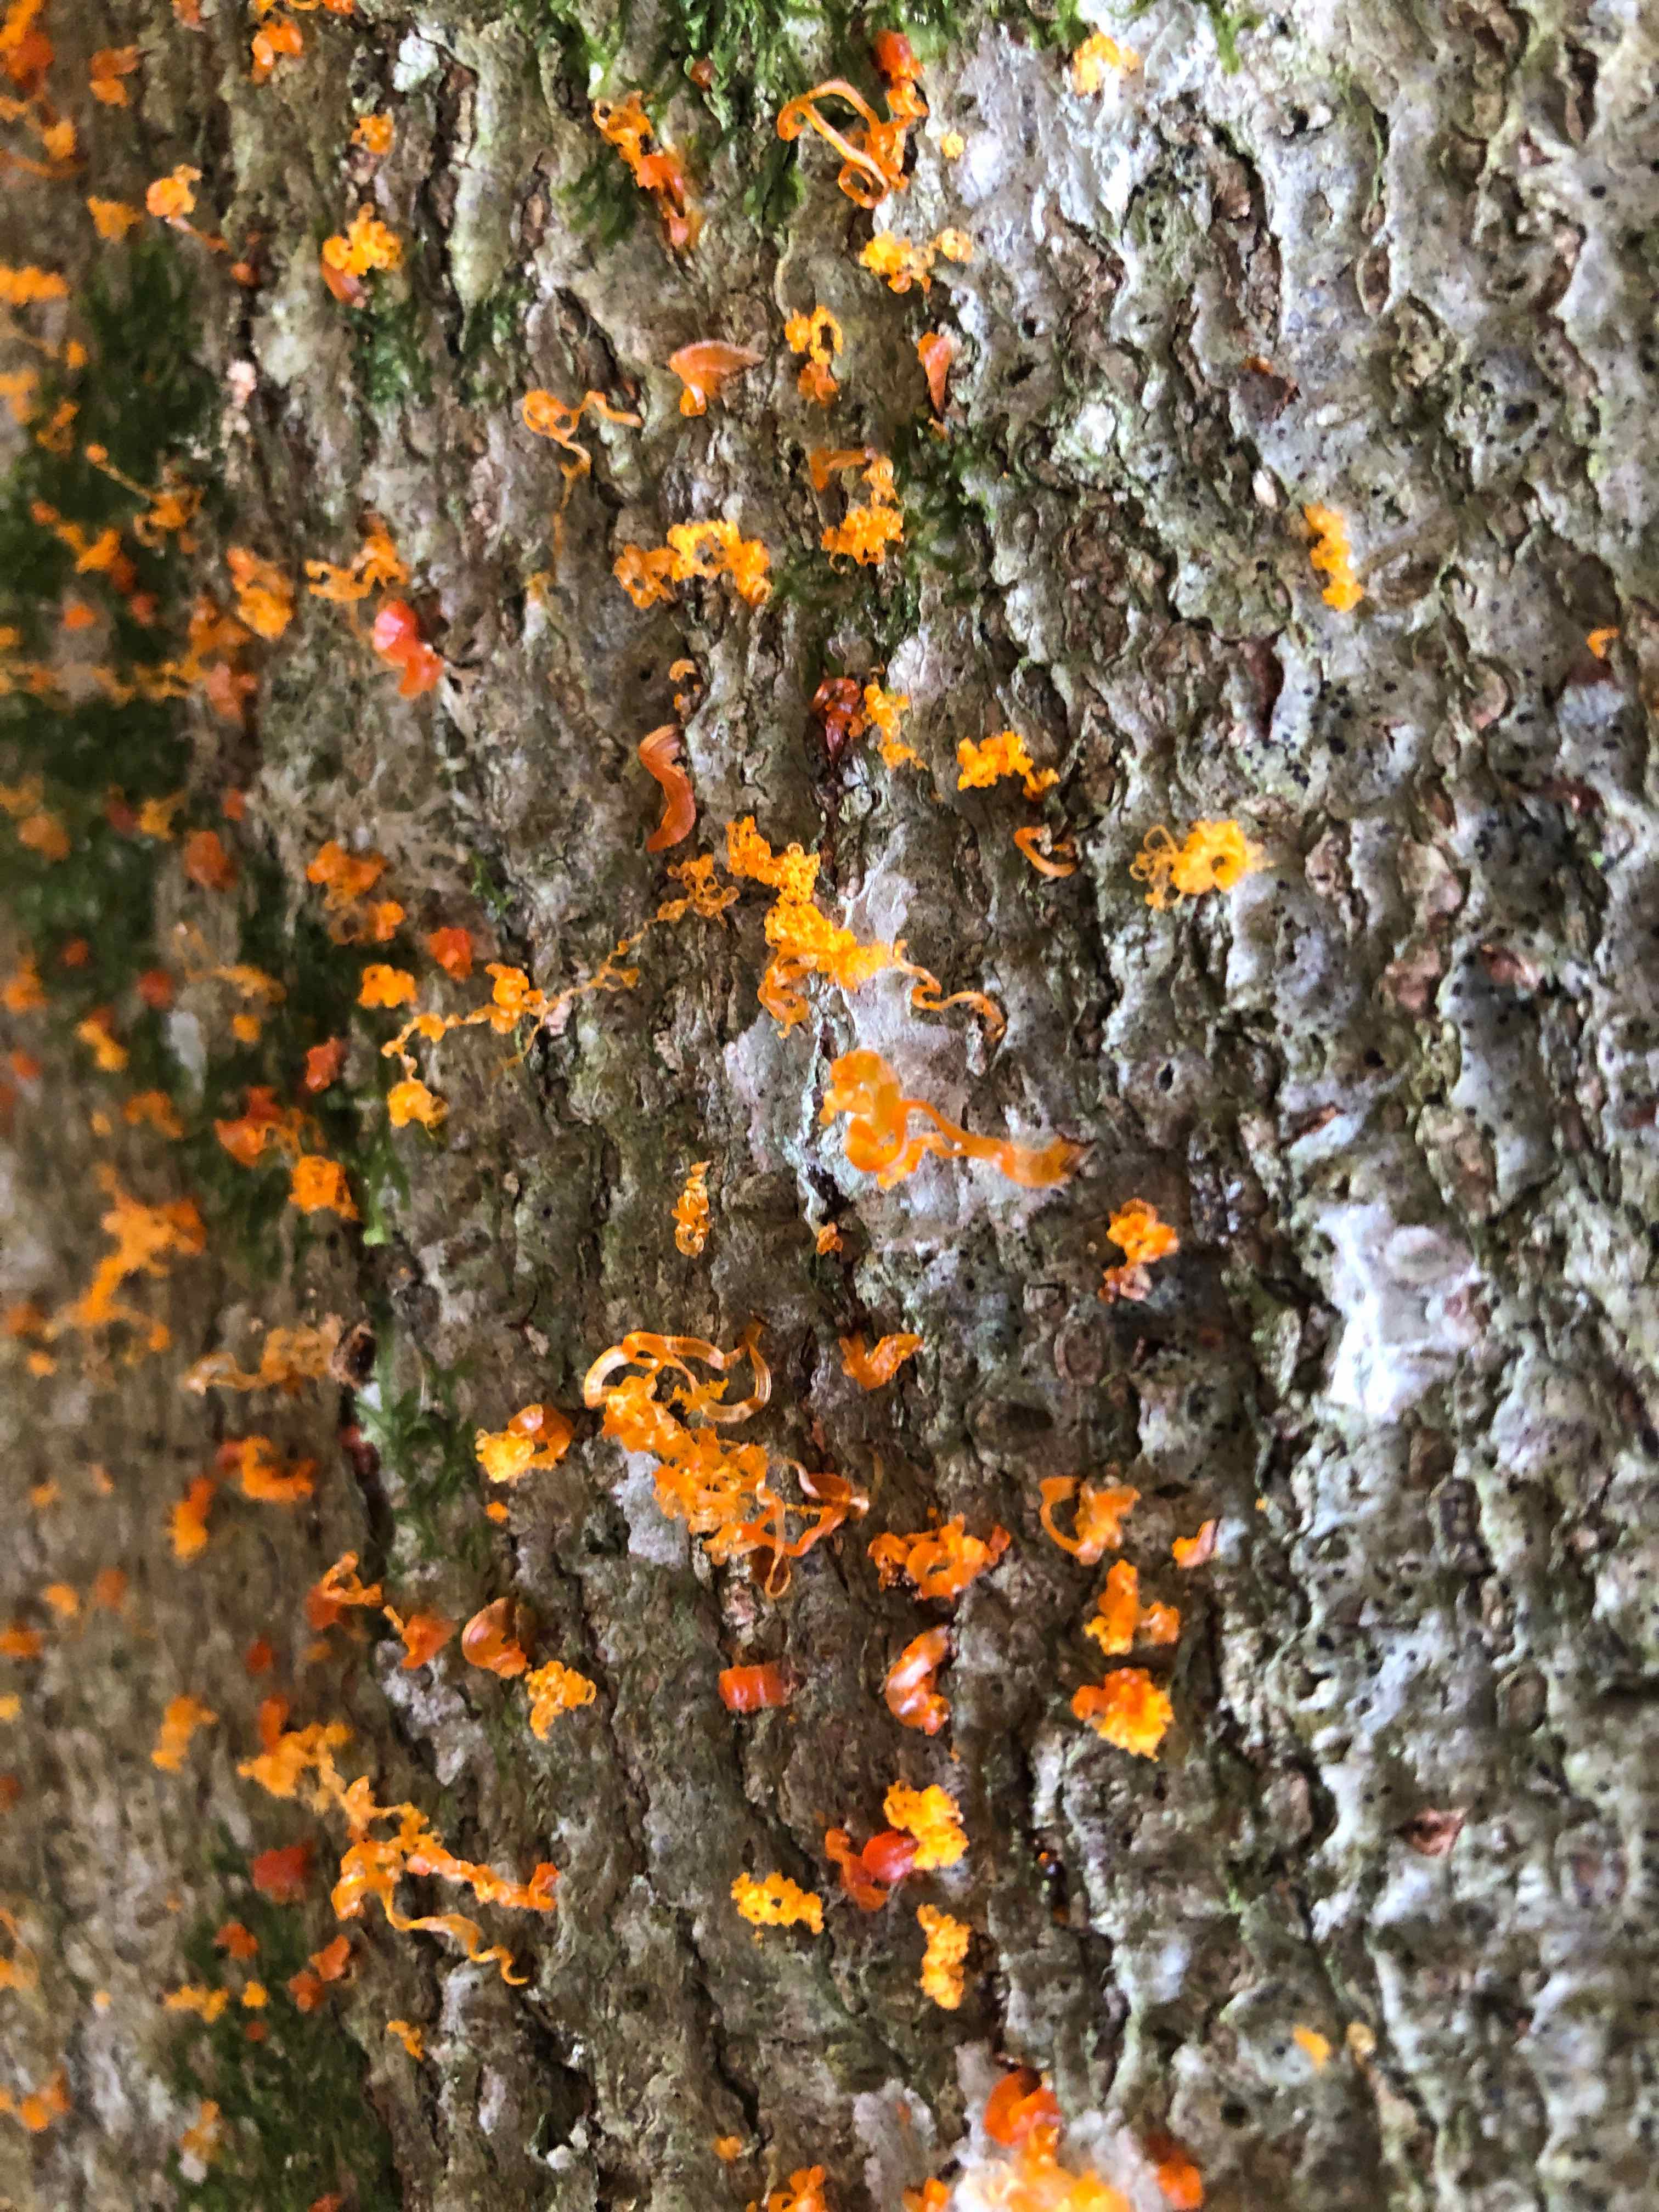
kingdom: Fungi
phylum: Ascomycota
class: Sordariomycetes
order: Xylariales
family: Diatrypaceae
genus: Eutypella
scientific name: Eutypella quaternata
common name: bøge-korsprik
